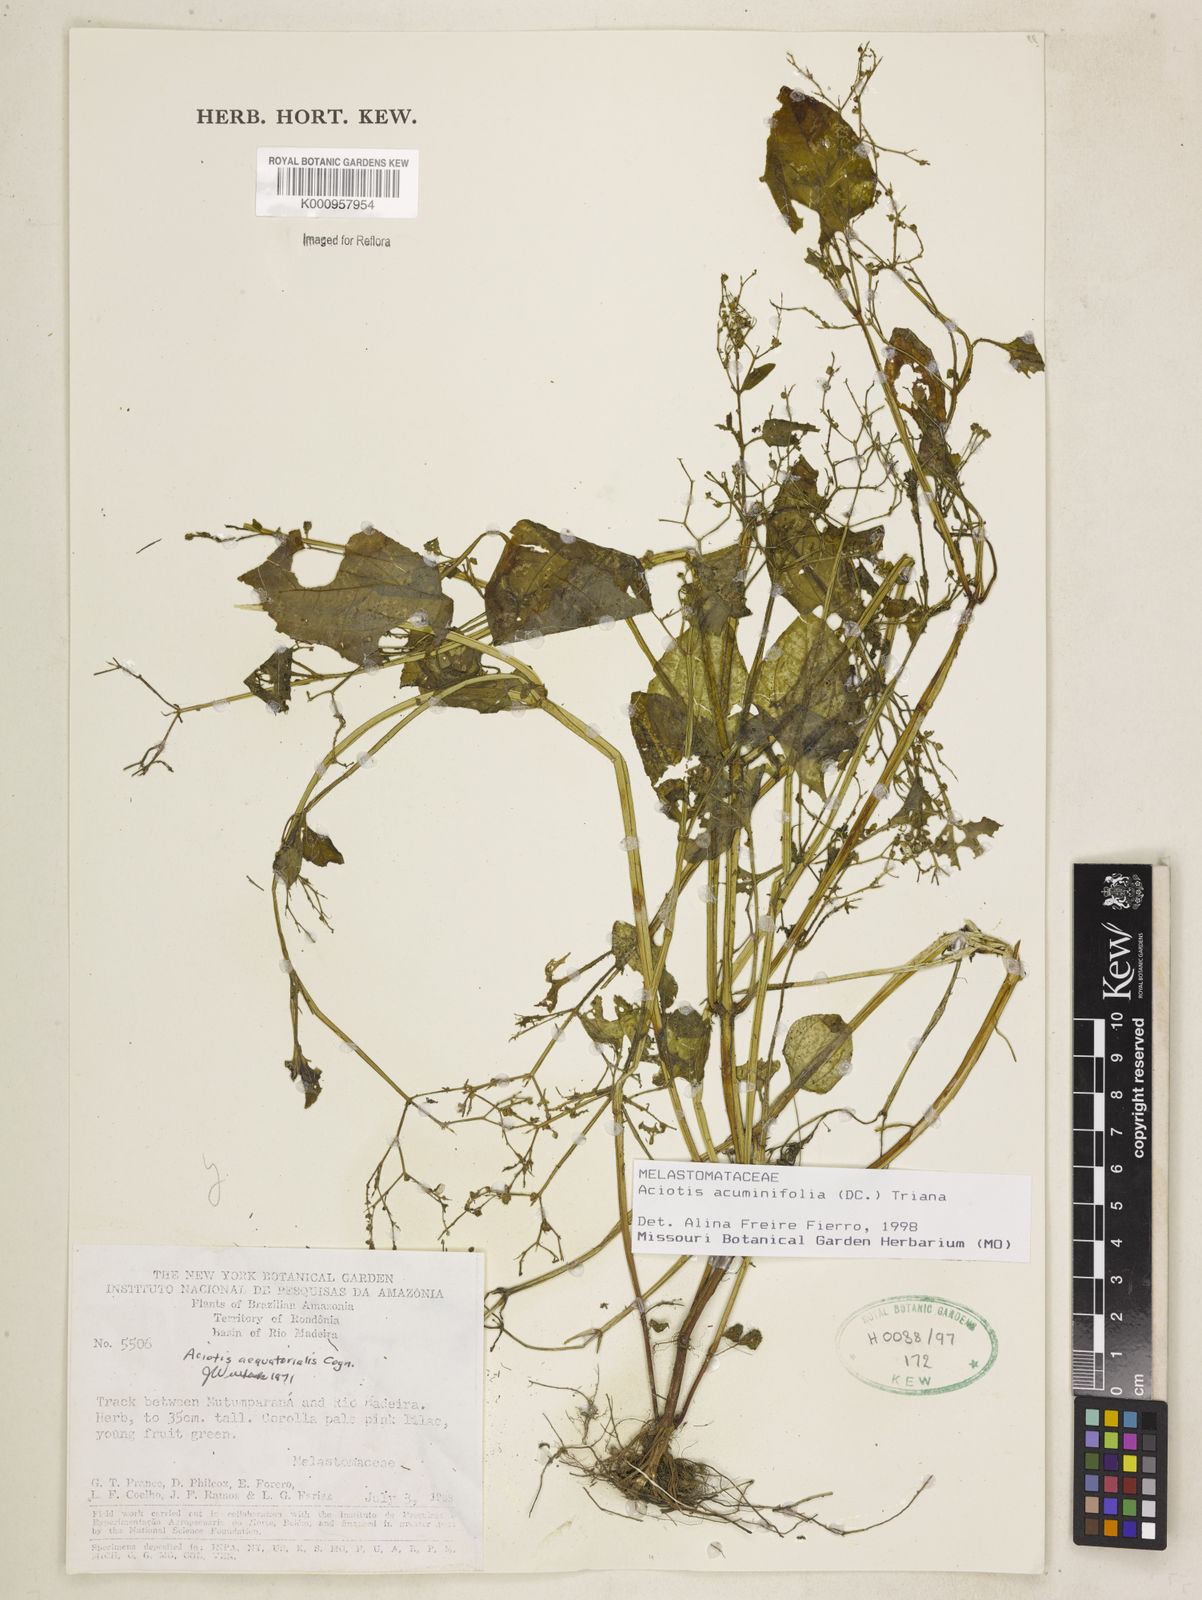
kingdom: Plantae
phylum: Tracheophyta
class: Magnoliopsida
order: Myrtales
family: Melastomataceae
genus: Aciotis
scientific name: Aciotis acuminifolia
